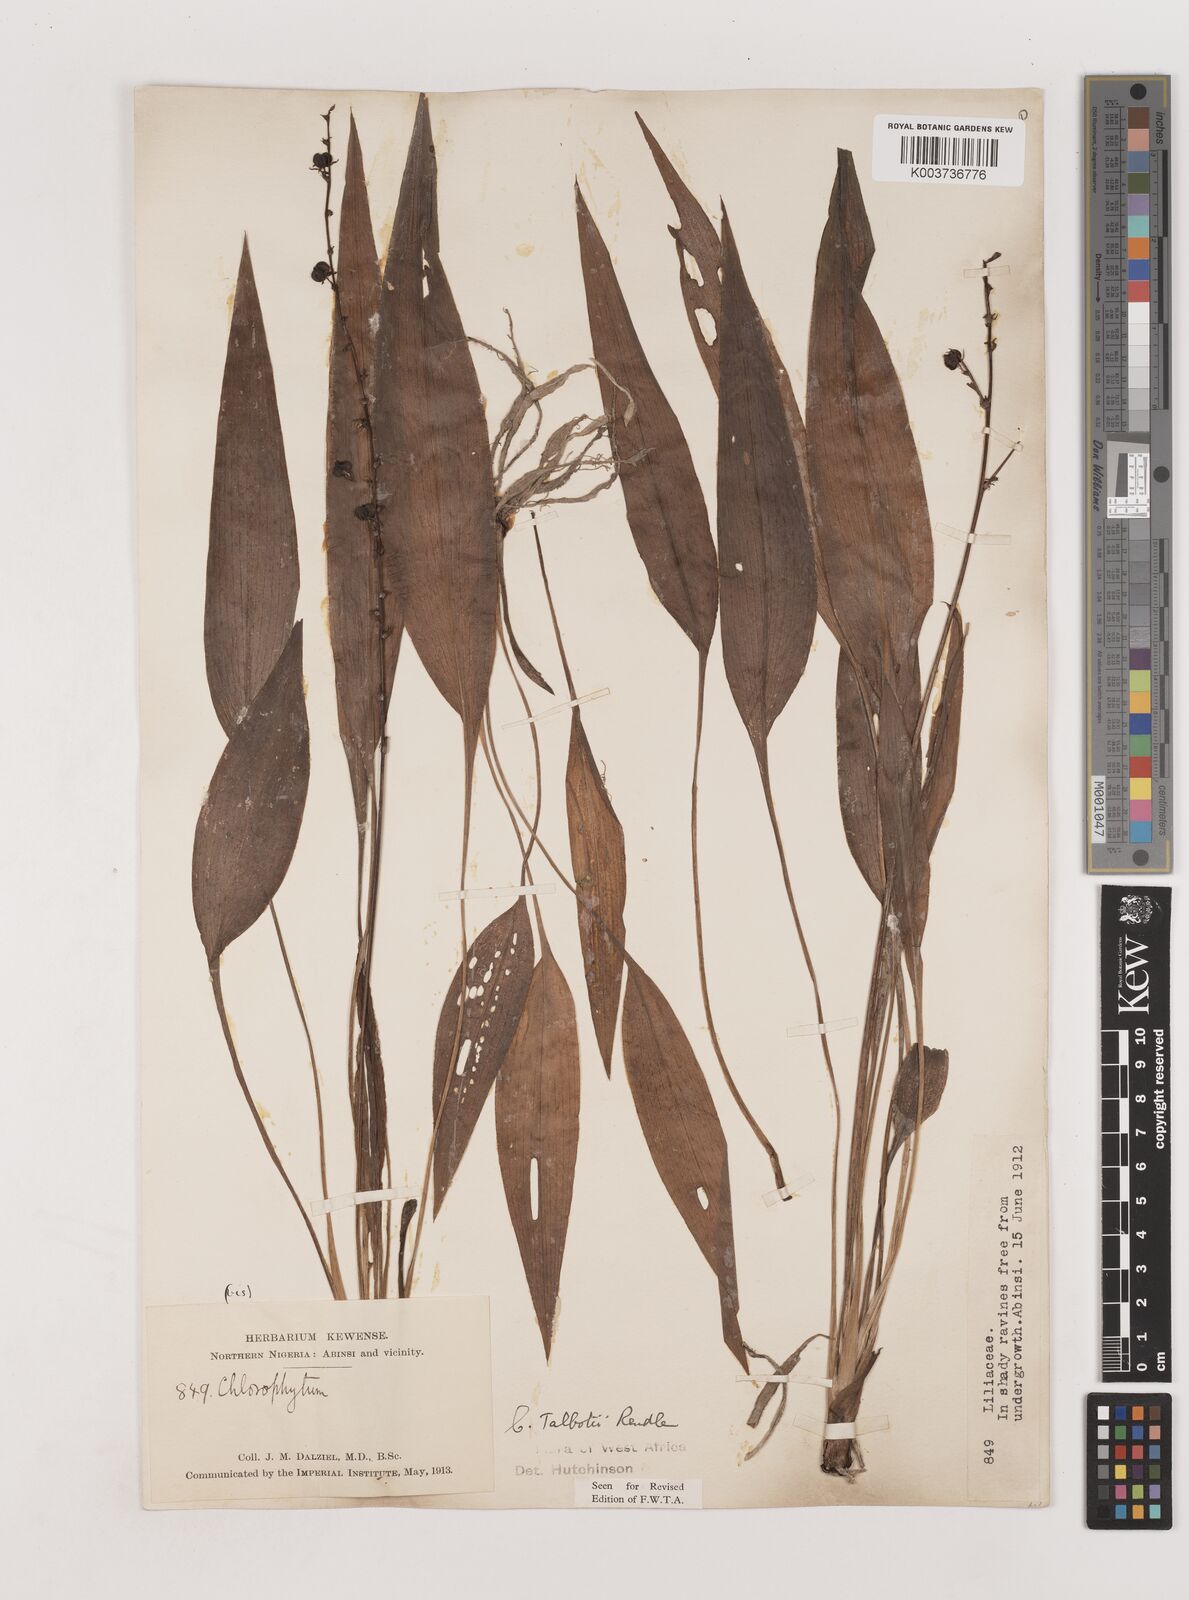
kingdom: Plantae
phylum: Tracheophyta
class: Liliopsida
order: Asparagales
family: Asparagaceae
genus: Chlorophytum
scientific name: Chlorophytum lancifolium
